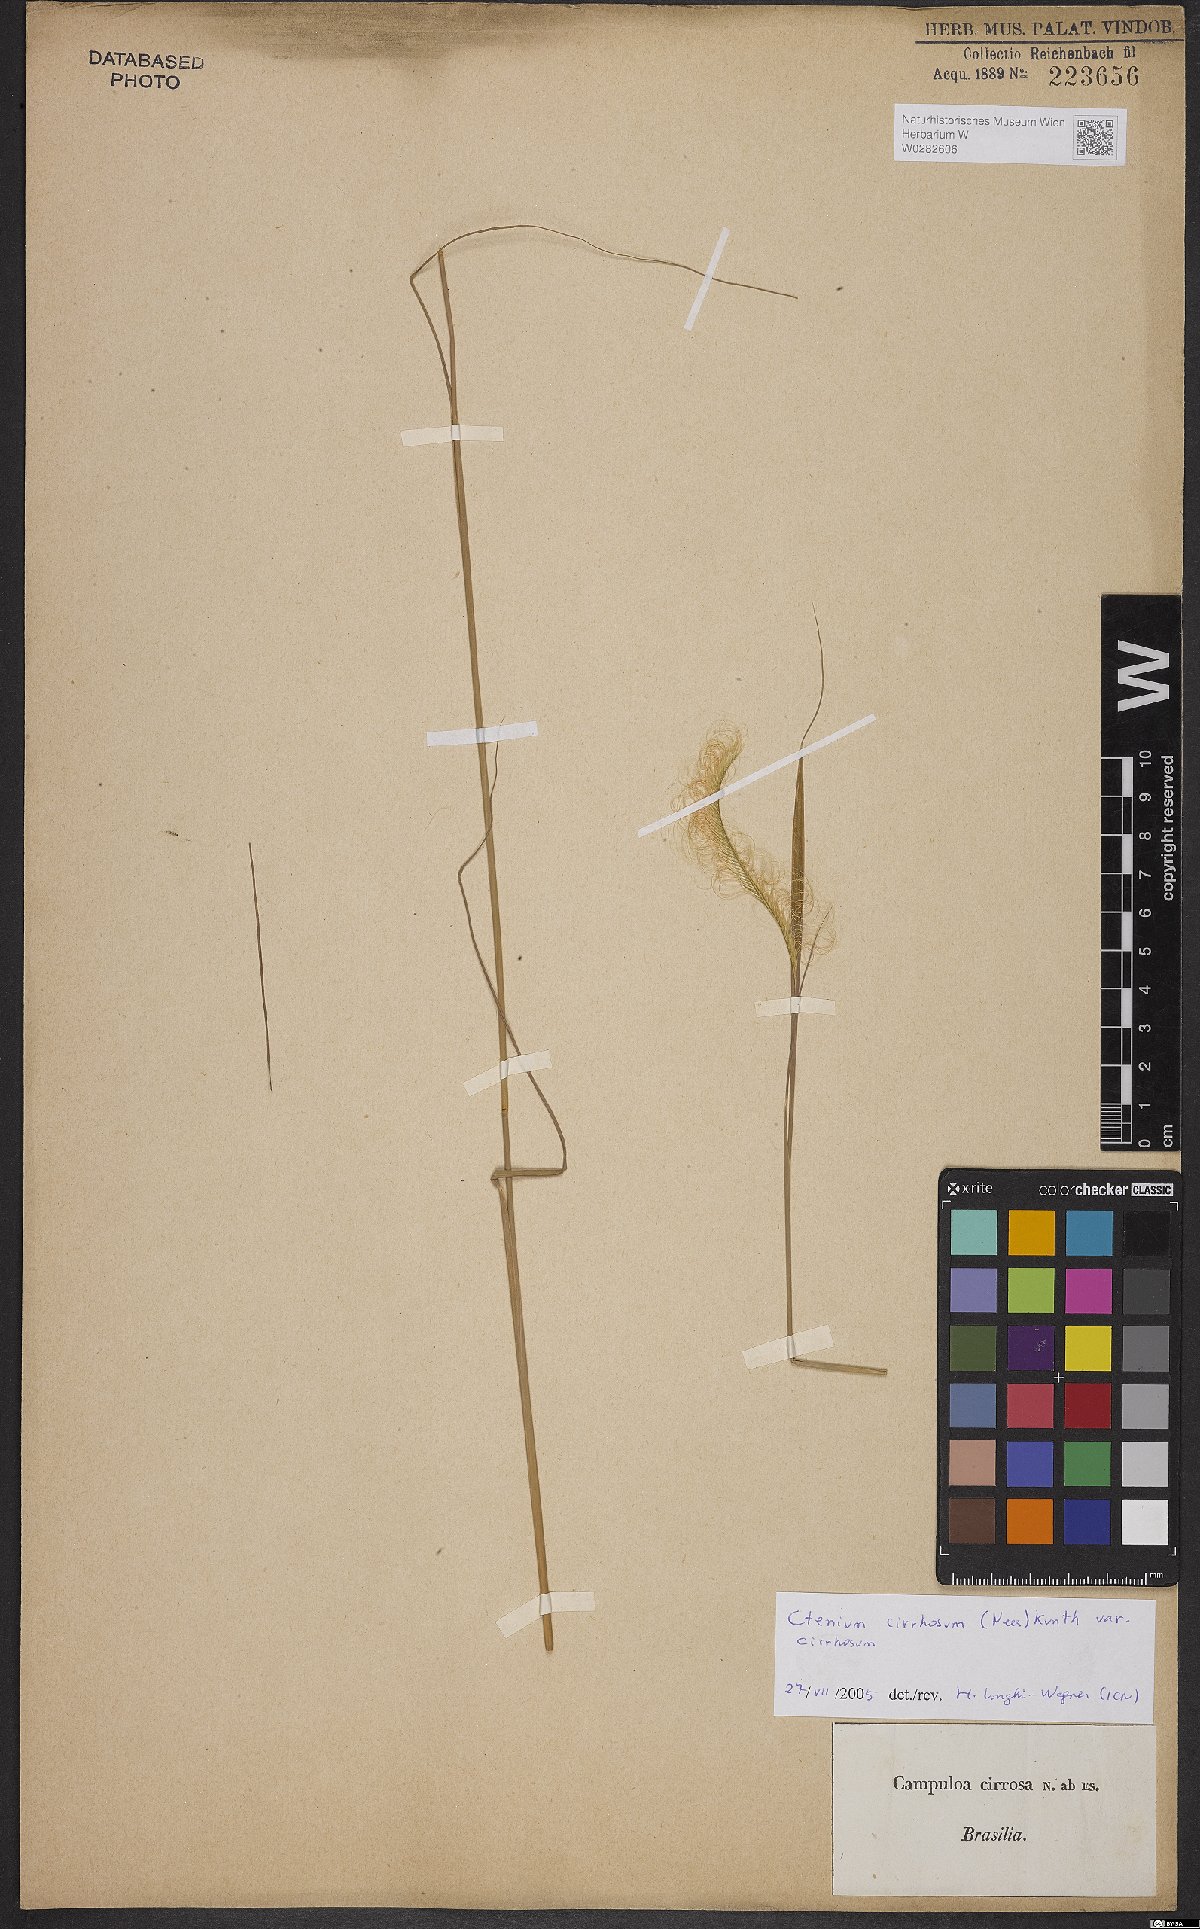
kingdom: Plantae
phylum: Tracheophyta
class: Liliopsida
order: Poales
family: Poaceae
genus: Ctenium
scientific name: Ctenium cirrhosum
